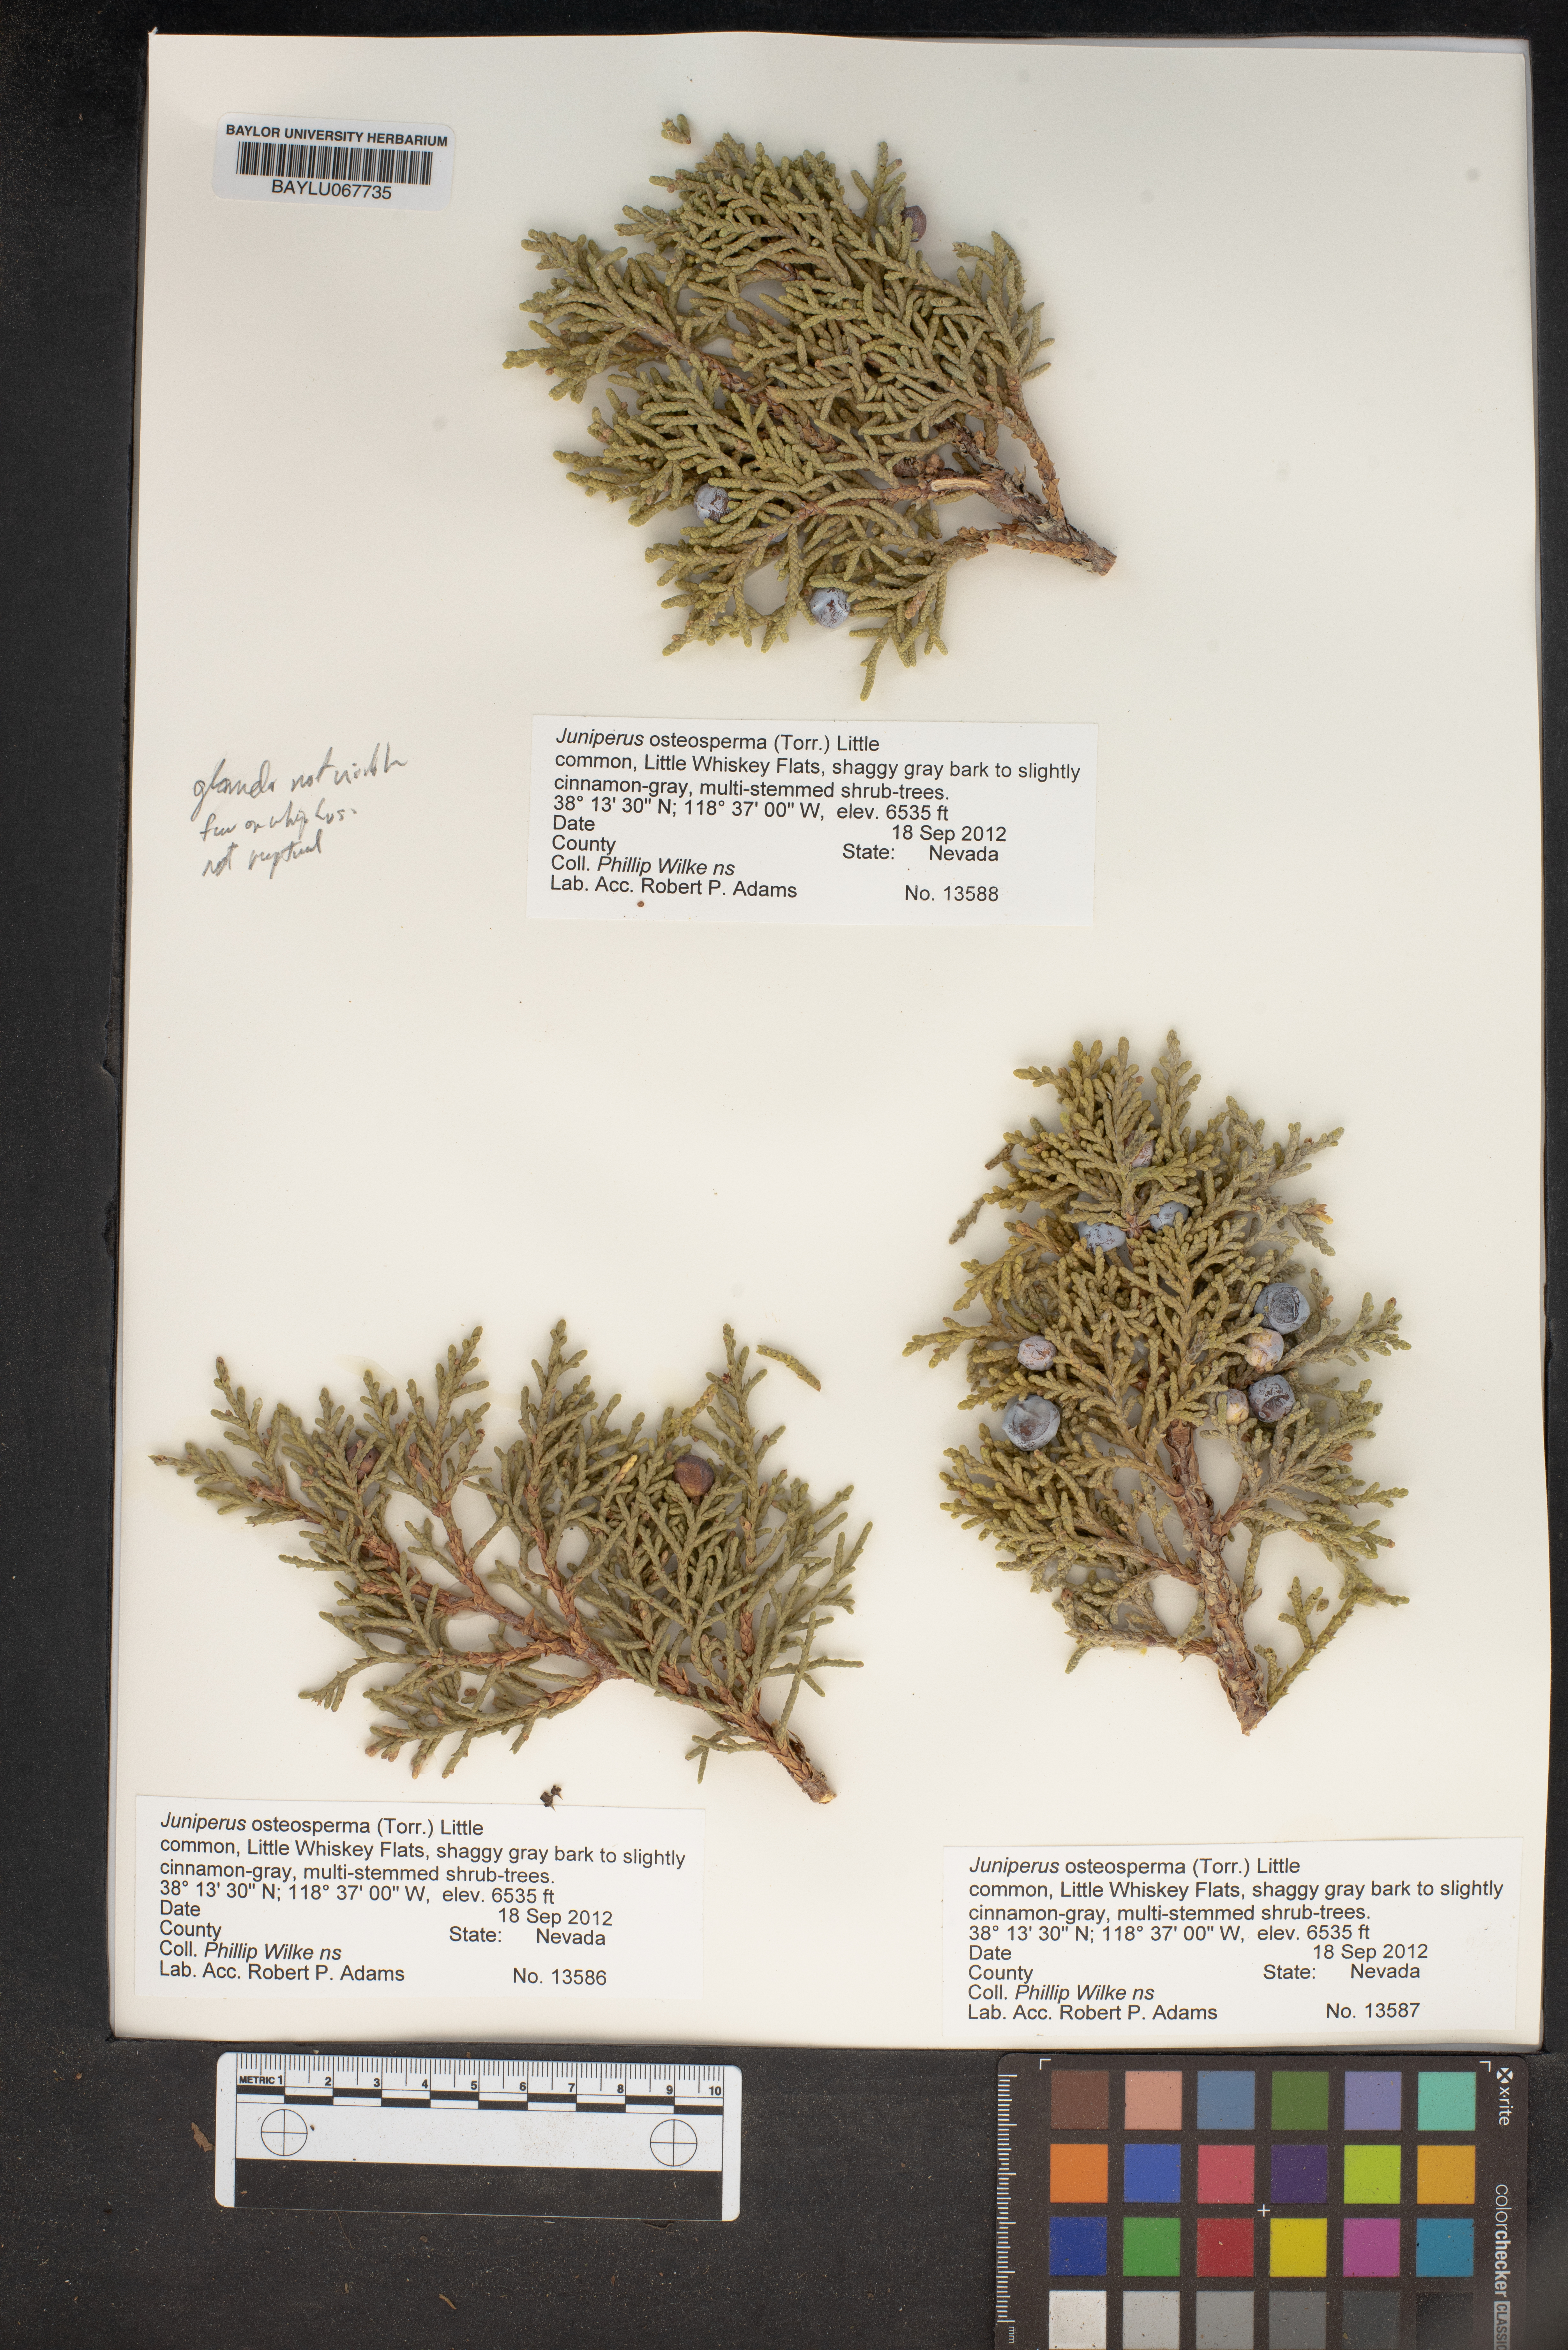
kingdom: Plantae
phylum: Tracheophyta
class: Pinopsida
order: Pinales
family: Cupressaceae
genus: Juniperus
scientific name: Juniperus osteosperma
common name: Utah juniper
